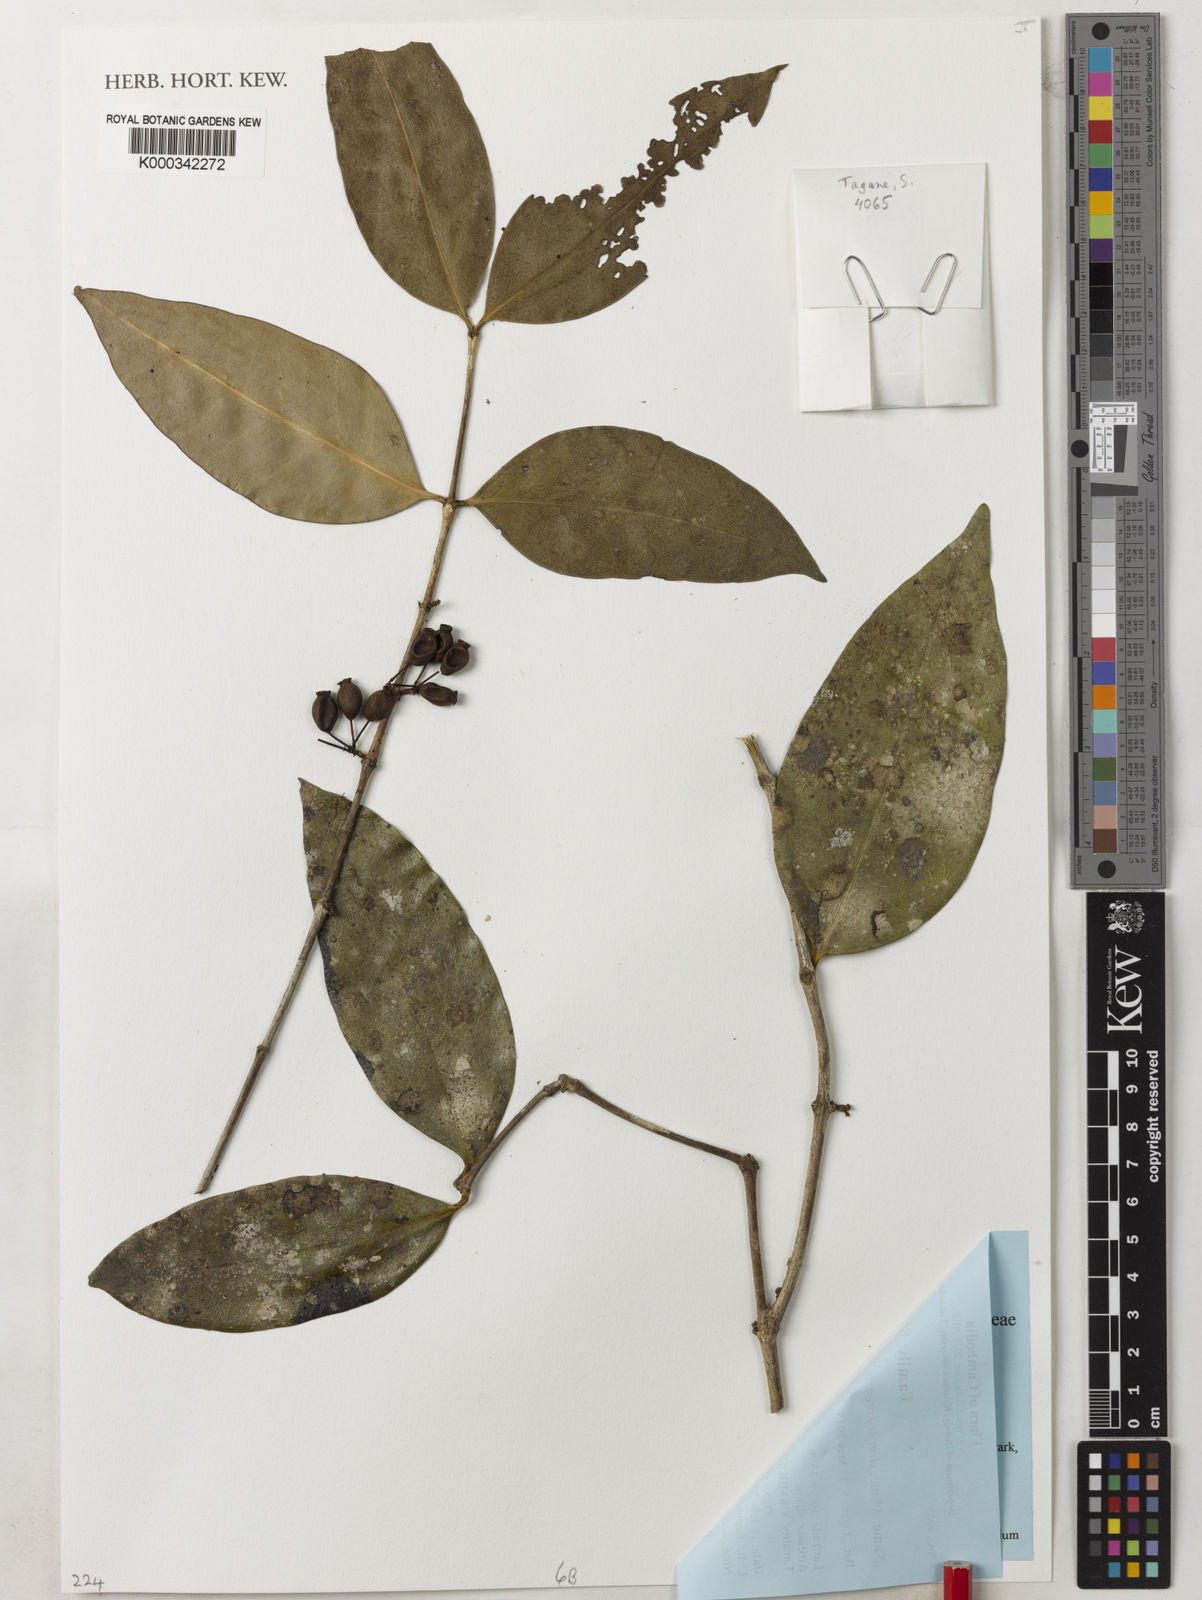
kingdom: Plantae
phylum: Tracheophyta
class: Magnoliopsida
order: Myrtales
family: Melastomataceae
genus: Memecylon
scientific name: Memecylon bokorensis
